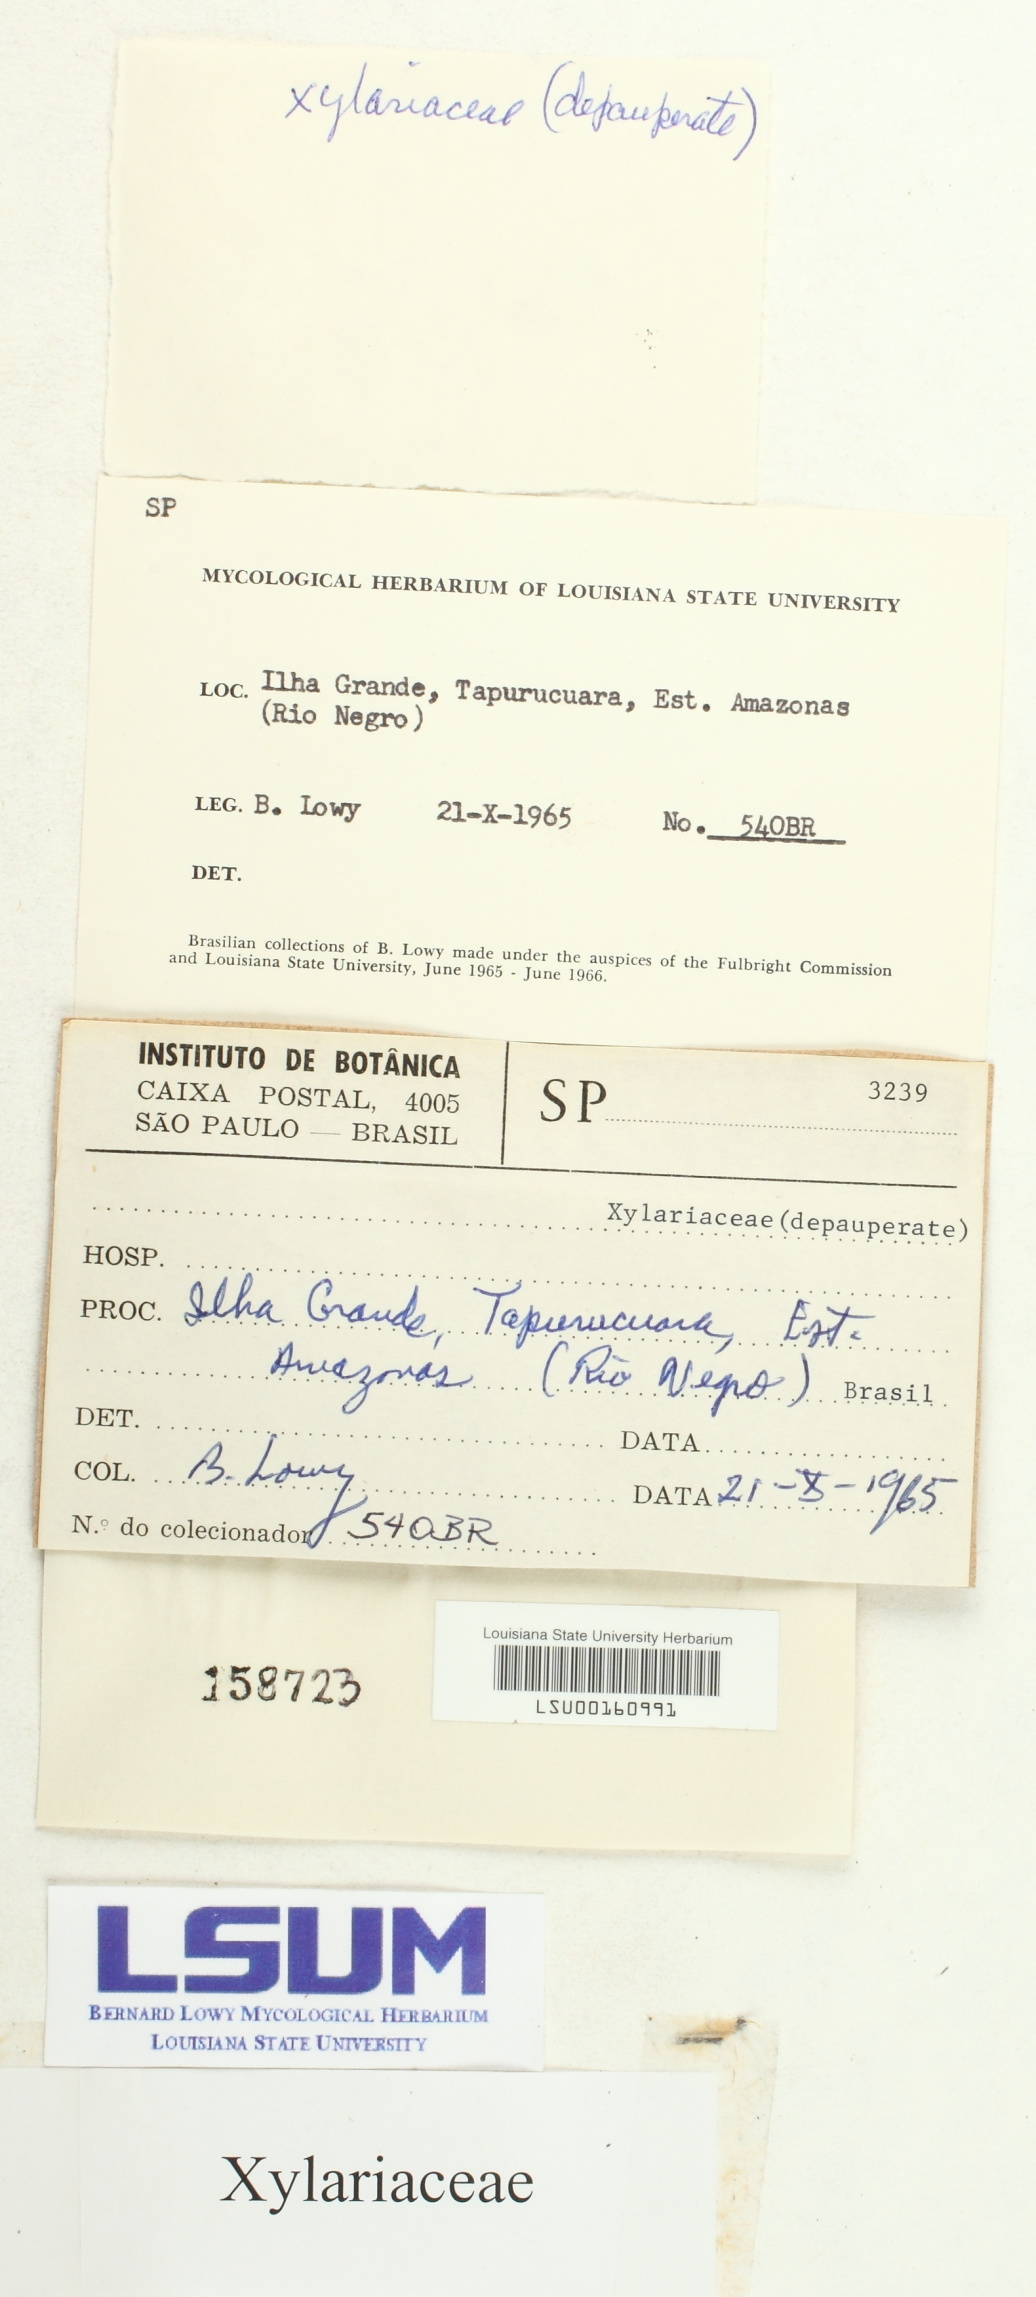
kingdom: Fungi
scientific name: Fungi
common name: Fungi
